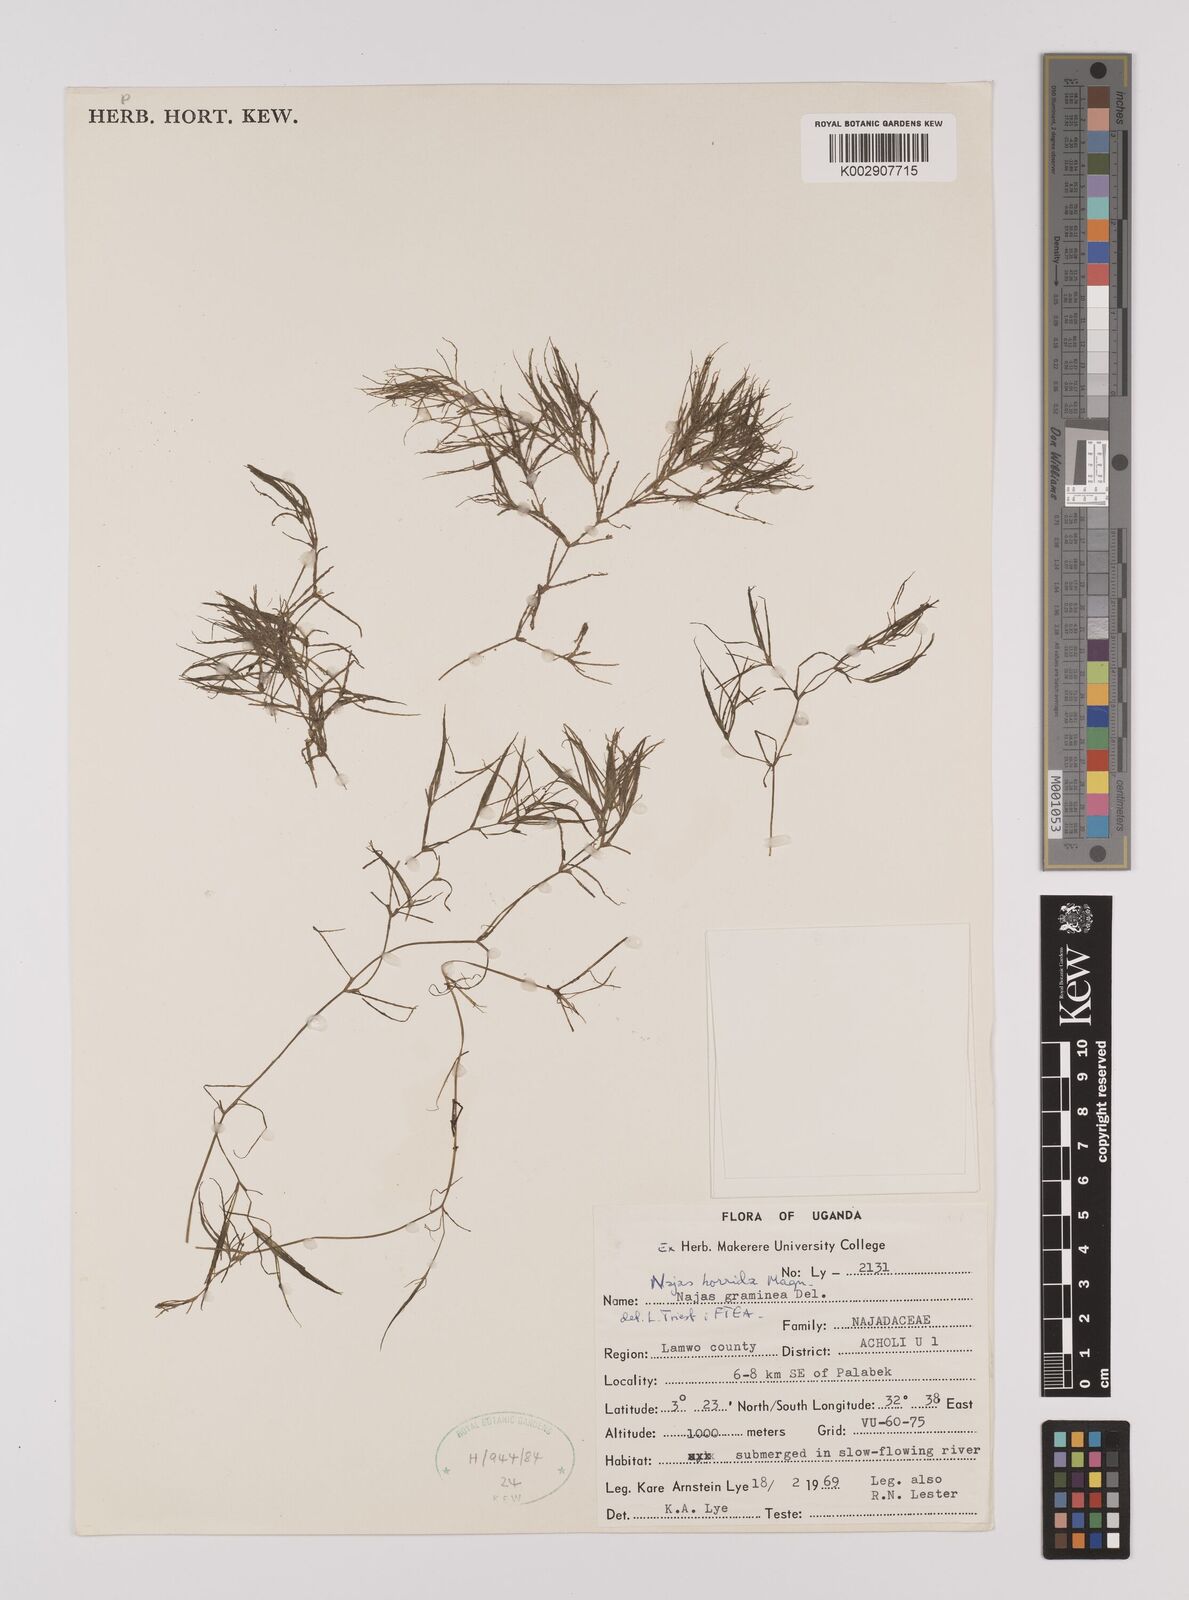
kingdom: Plantae
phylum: Tracheophyta
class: Liliopsida
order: Alismatales
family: Hydrocharitaceae
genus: Najas
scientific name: Najas horrida
